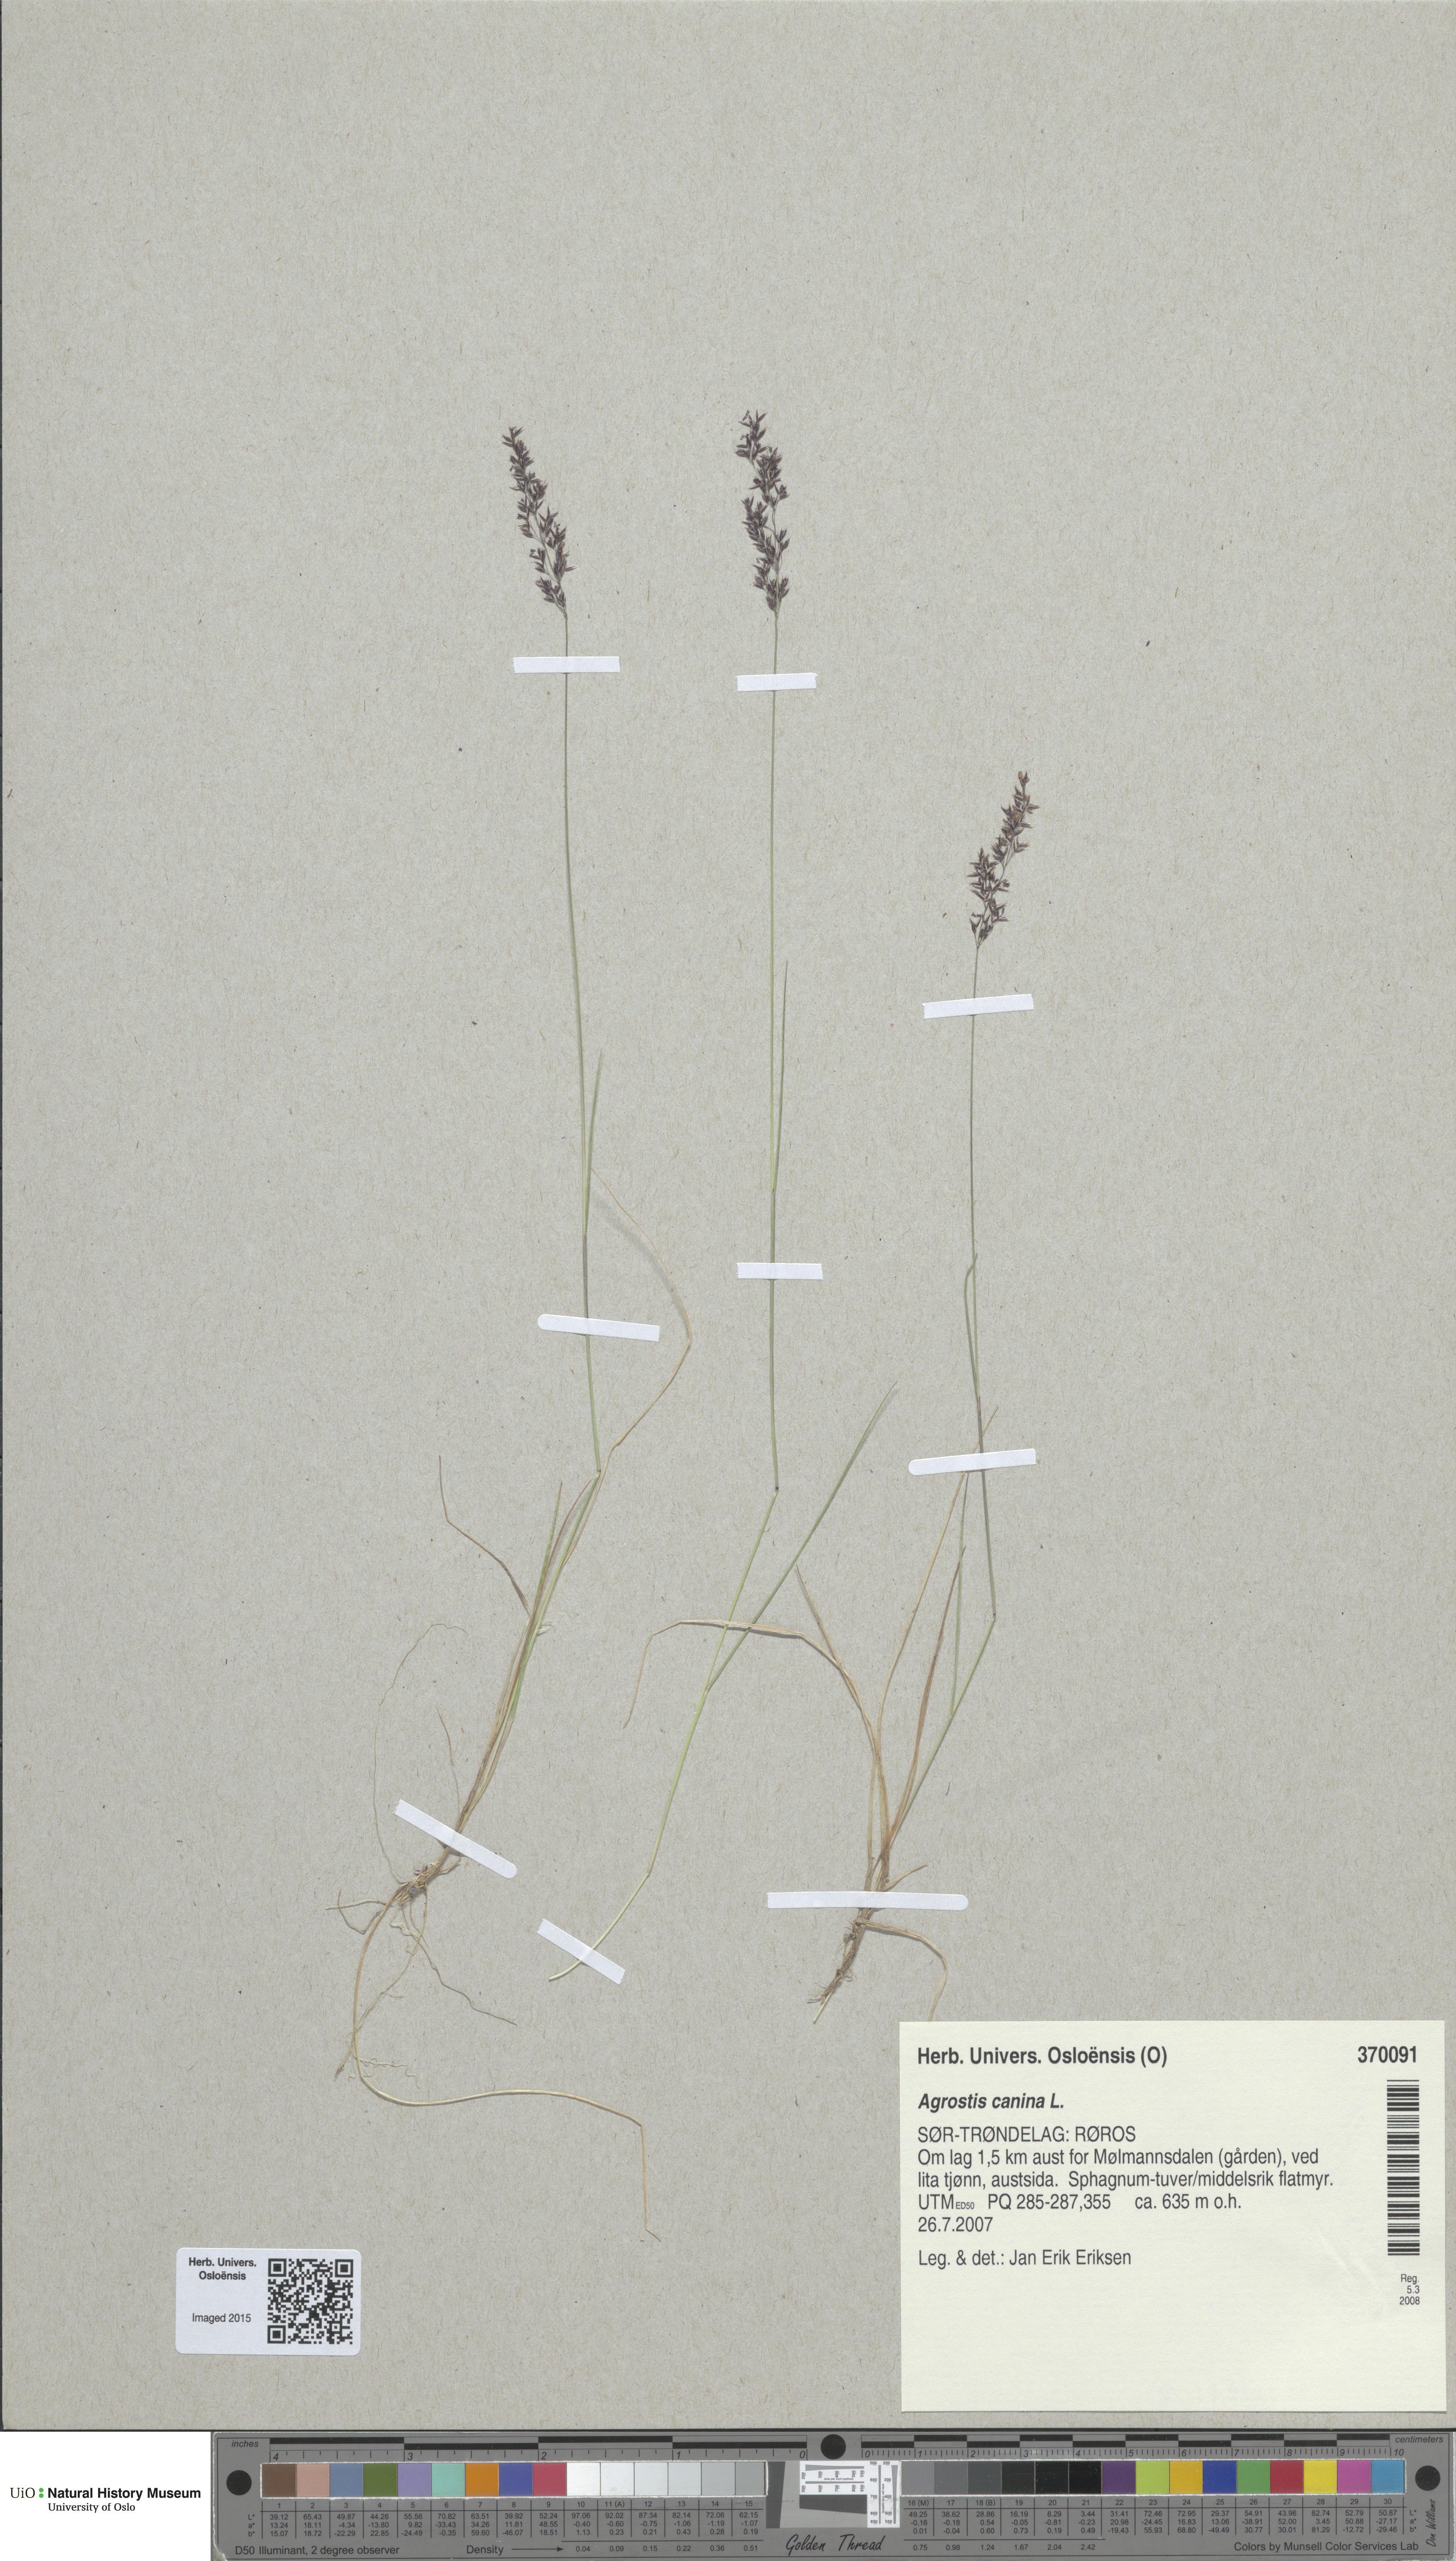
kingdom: Plantae
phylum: Tracheophyta
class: Liliopsida
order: Poales
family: Poaceae
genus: Agrostis
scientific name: Agrostis canina
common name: Velvet bent
